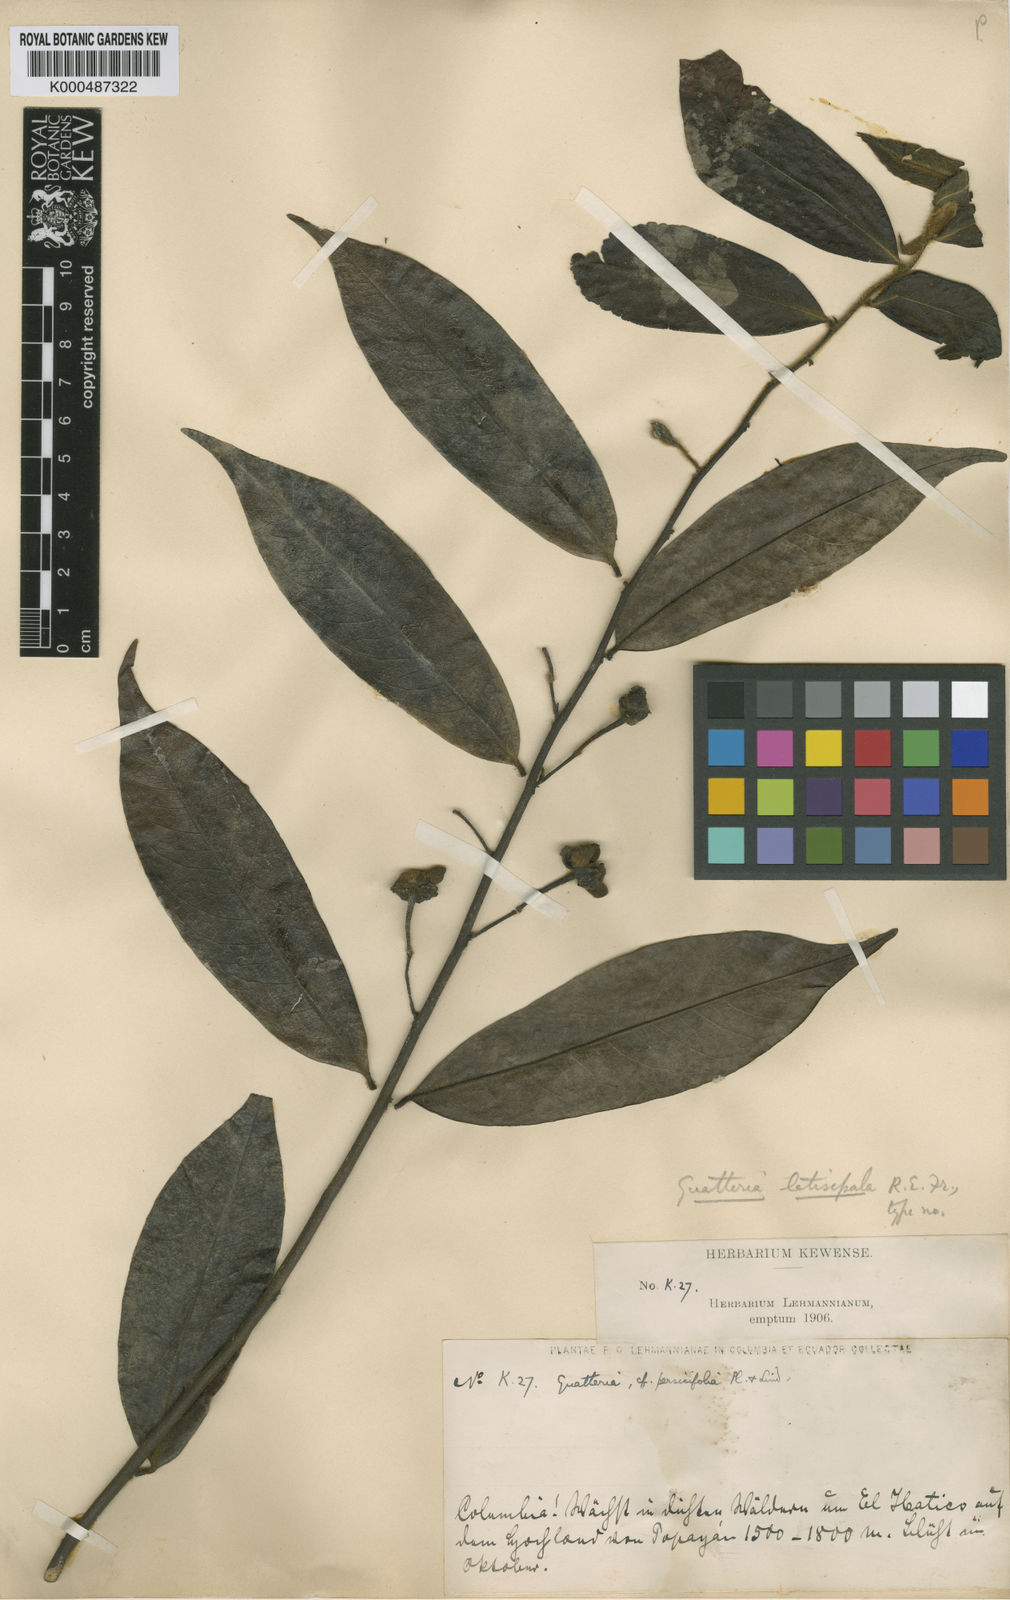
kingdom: Plantae
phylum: Tracheophyta
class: Magnoliopsida
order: Magnoliales
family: Annonaceae
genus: Guatteria
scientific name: Guatteria latisepala
